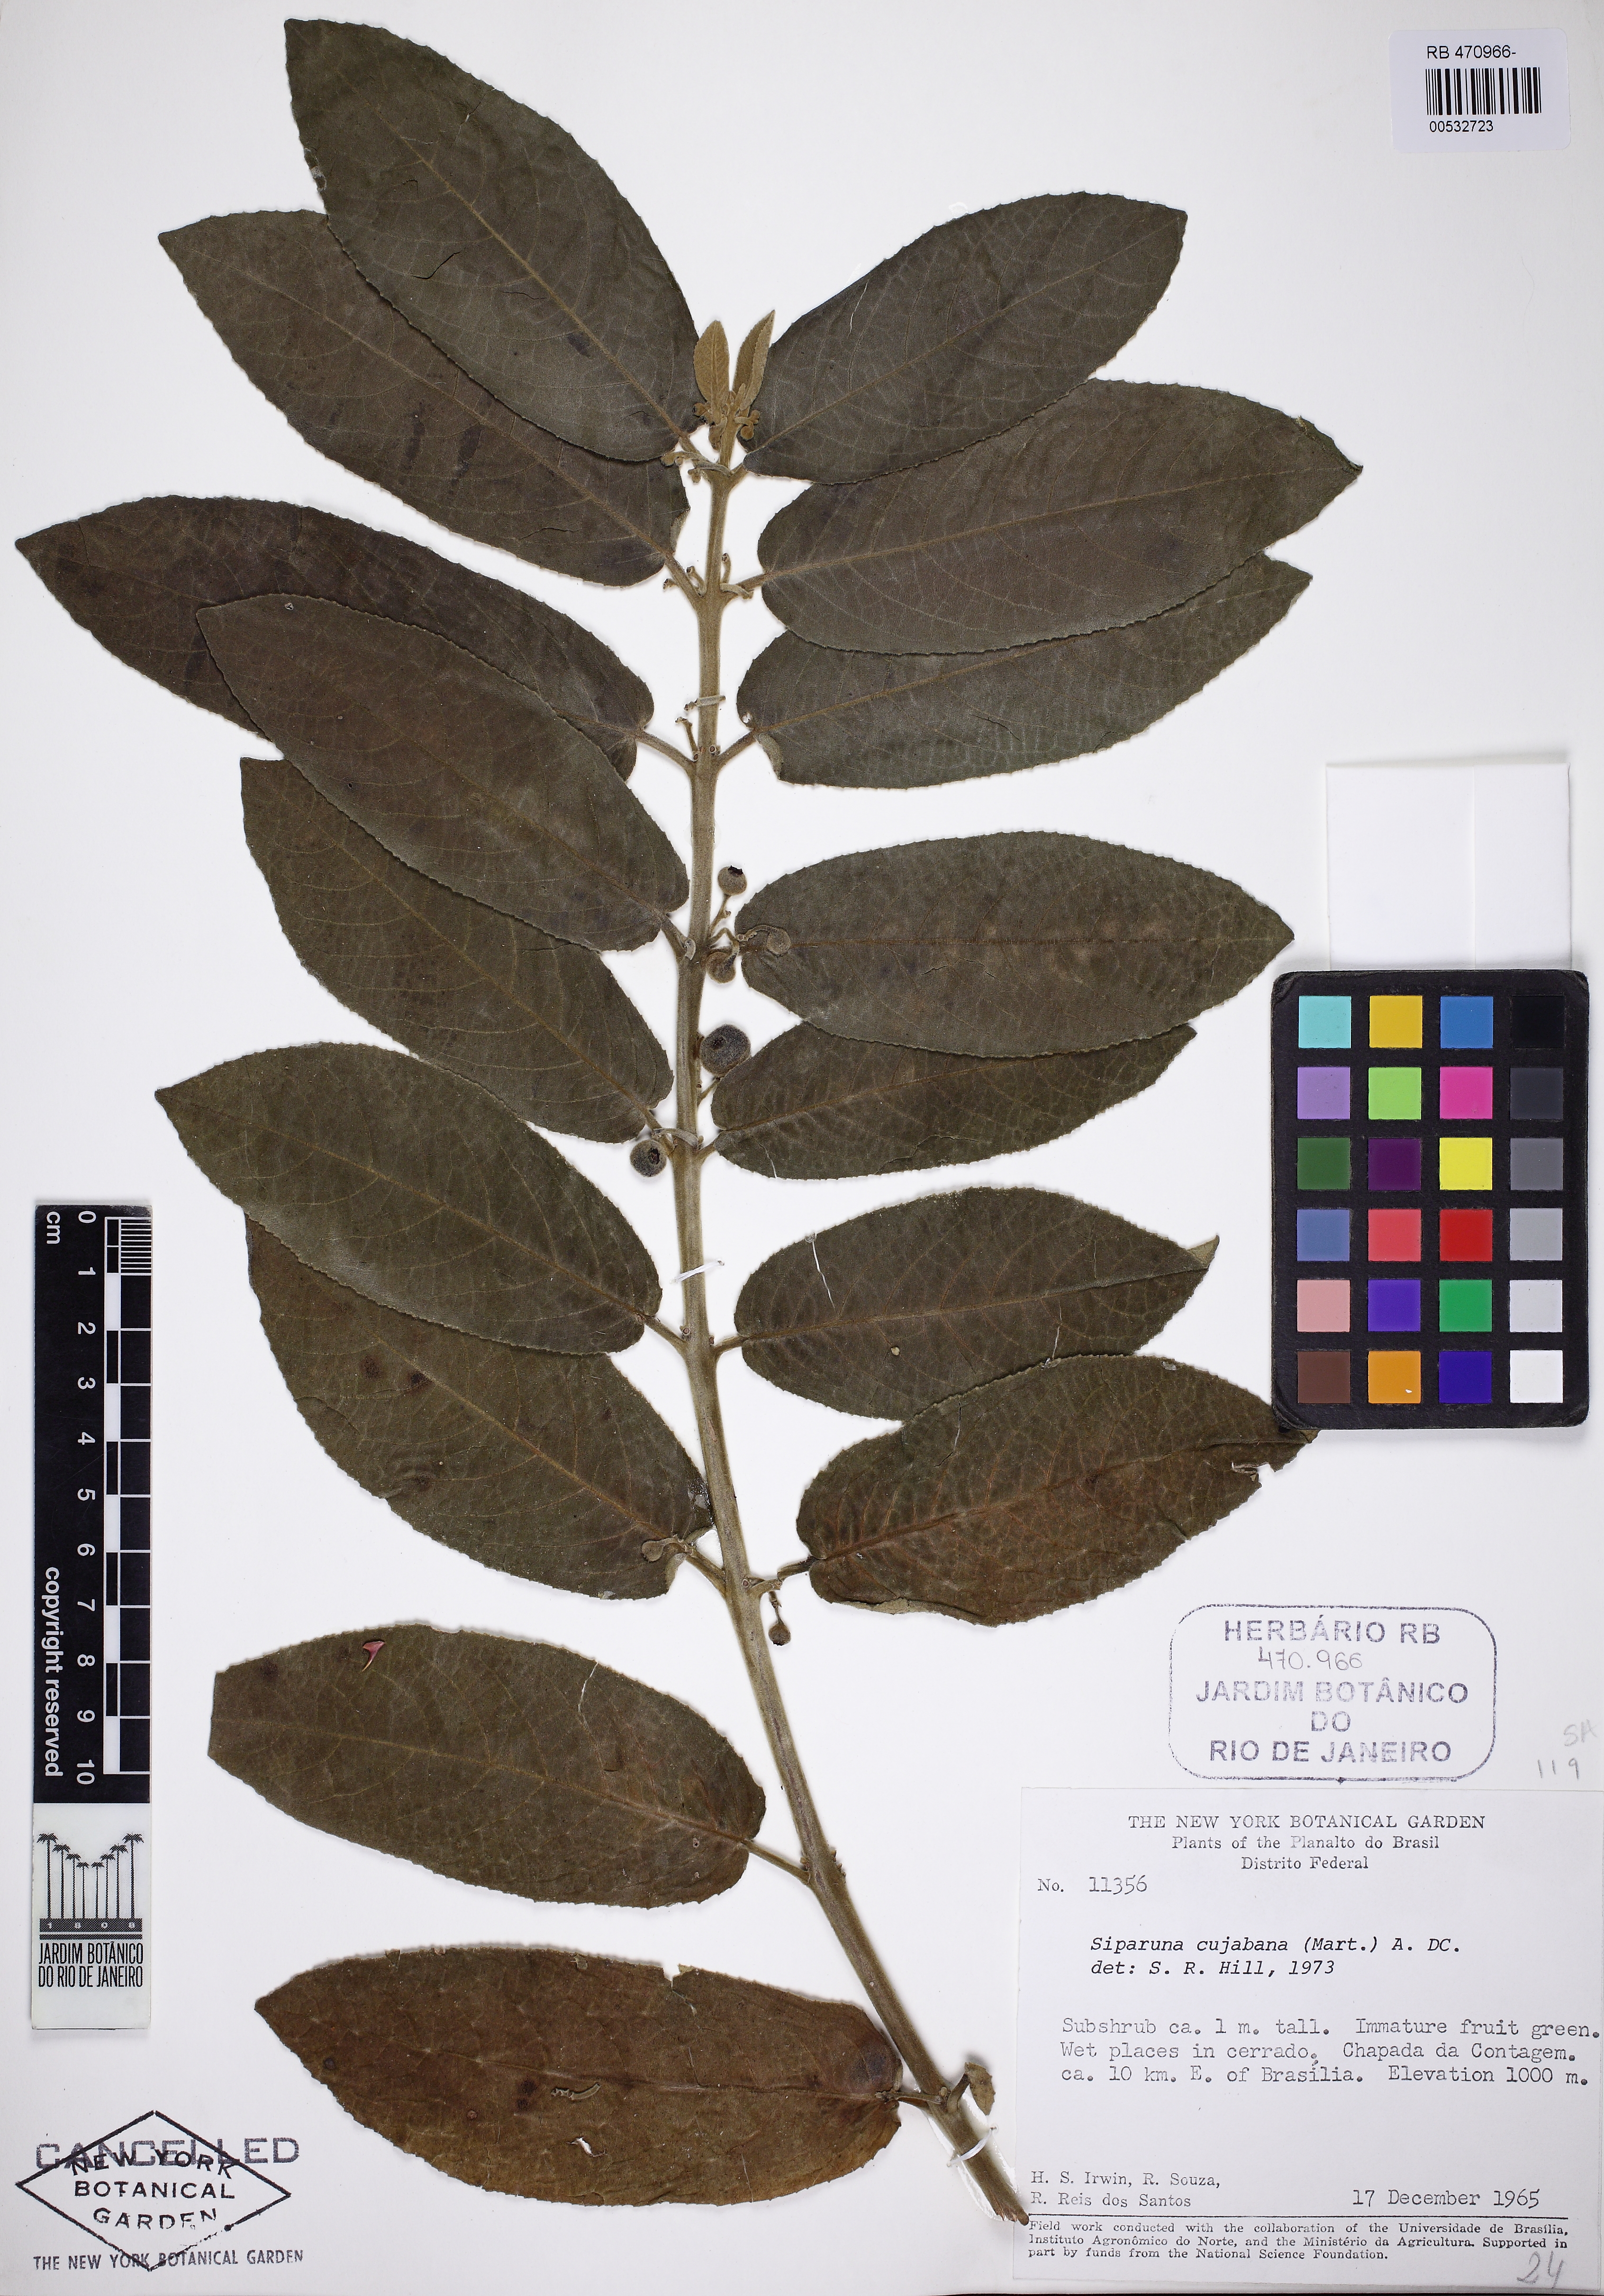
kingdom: Plantae
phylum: Tracheophyta
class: Magnoliopsida
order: Laurales
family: Siparunaceae
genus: Siparuna
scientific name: Siparuna brasiliensis
